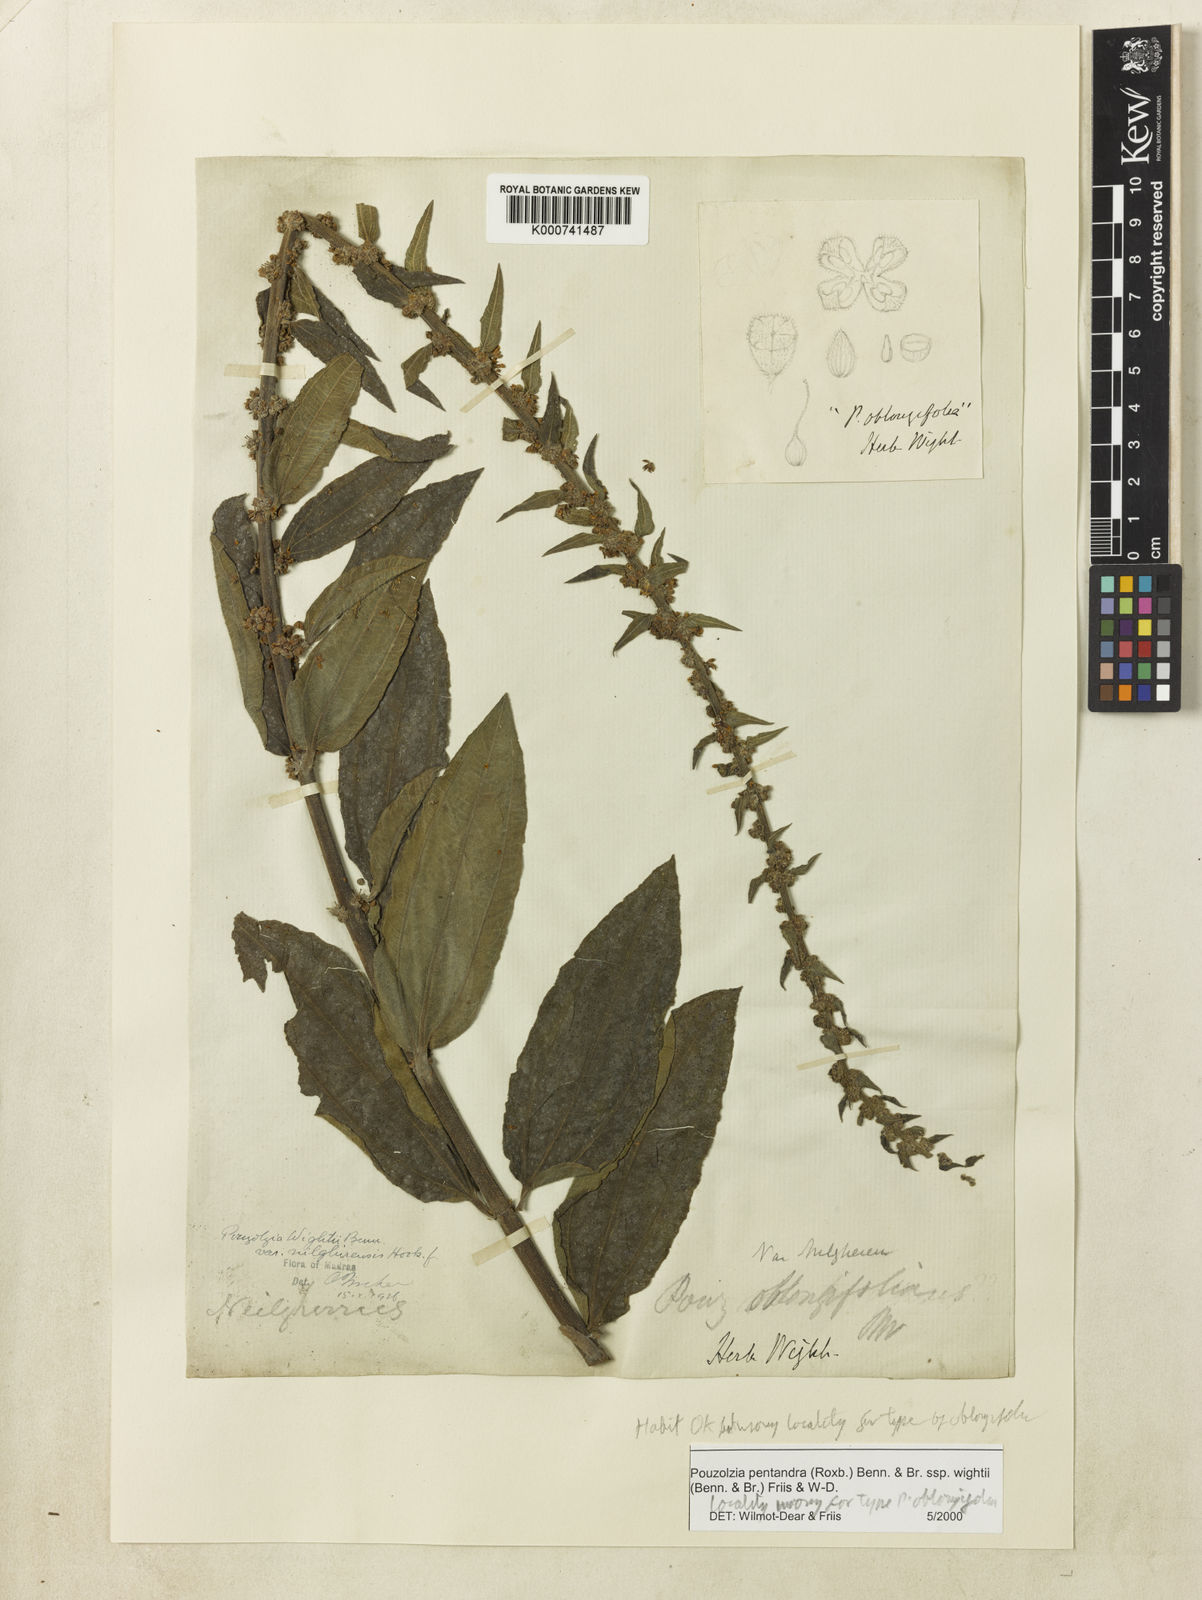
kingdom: Plantae
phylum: Tracheophyta
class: Magnoliopsida
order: Rosales
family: Urticaceae
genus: Gonostegia
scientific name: Gonostegia pentandra
